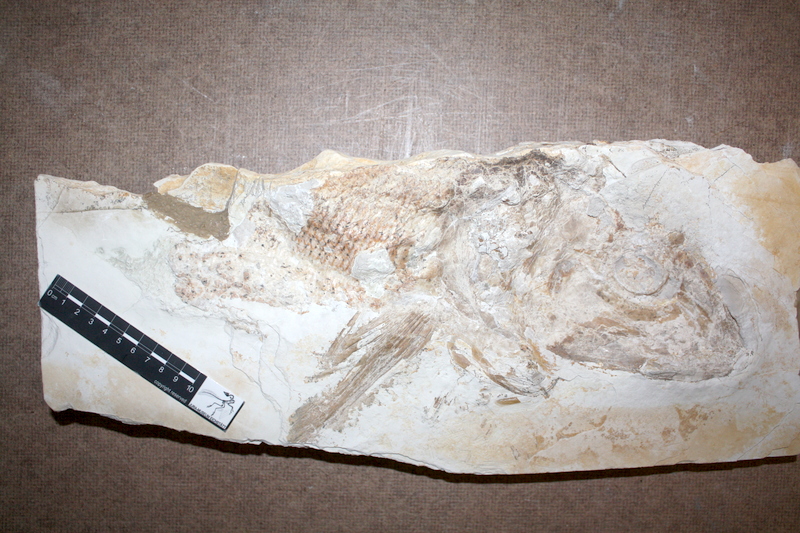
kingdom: Animalia
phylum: Chordata
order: Amiiformes
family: Caturidae
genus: Caturus
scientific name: Caturus
